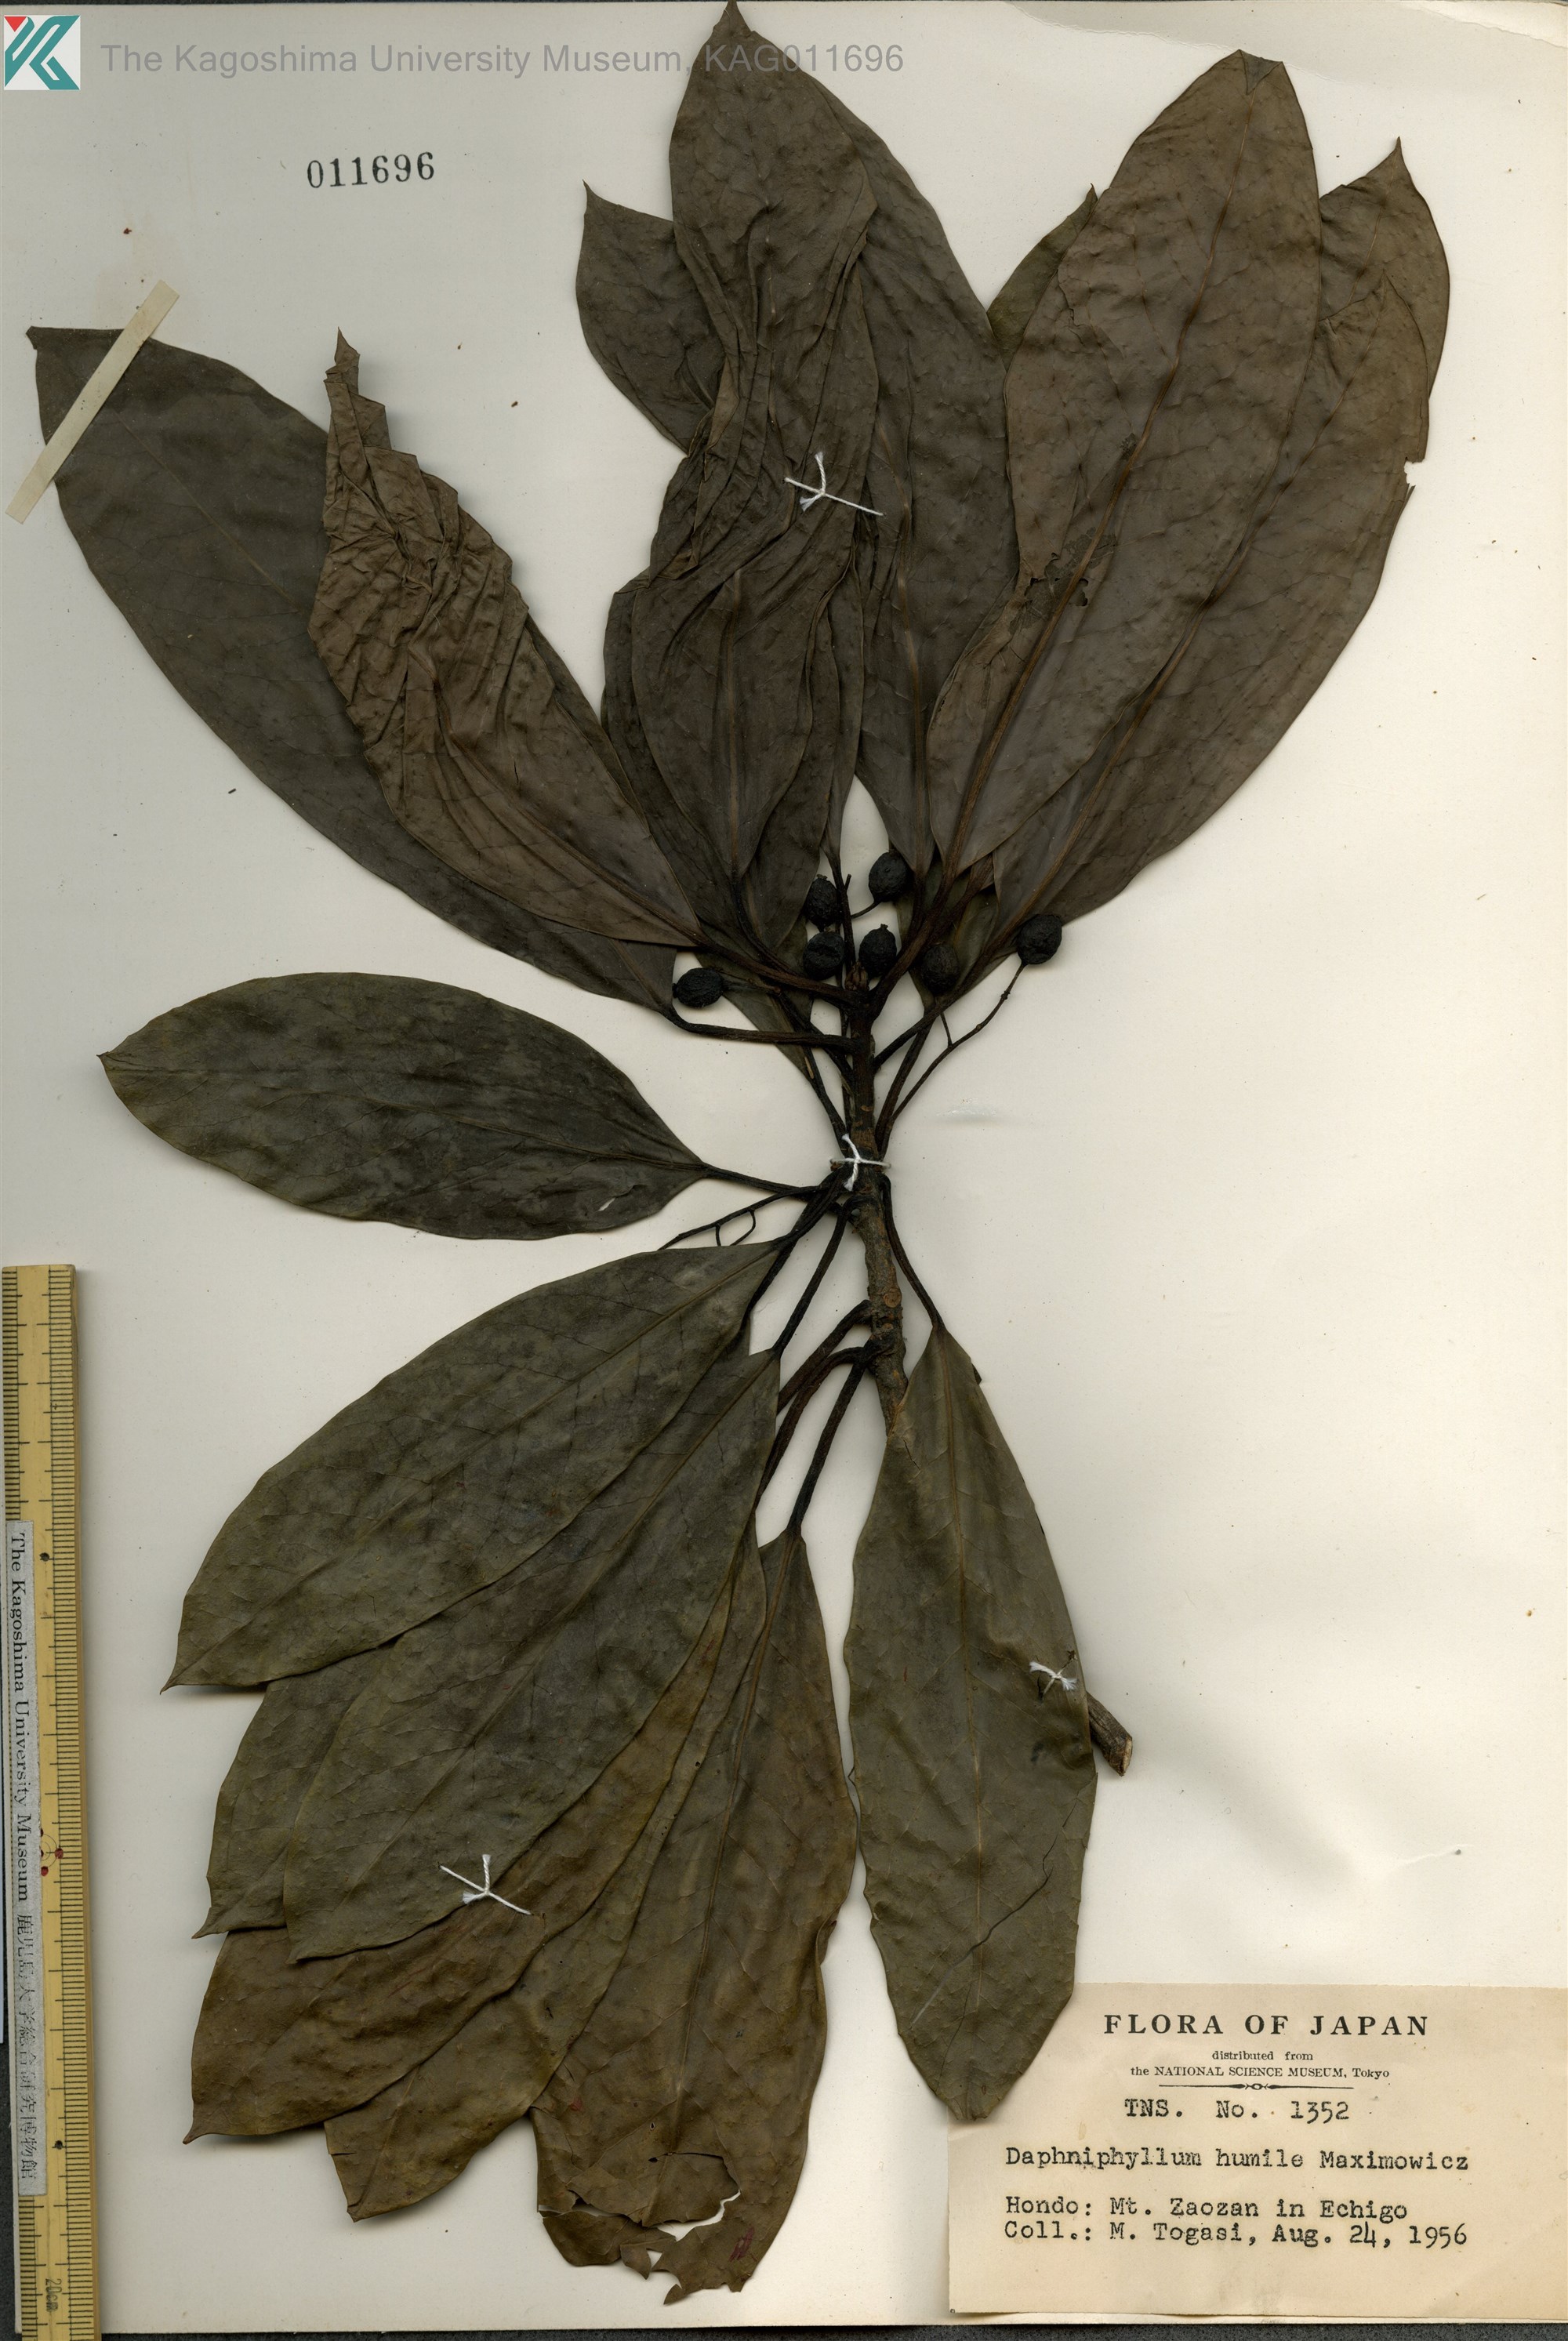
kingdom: Plantae
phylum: Tracheophyta
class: Magnoliopsida
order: Saxifragales
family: Daphniphyllaceae
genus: Daphniphyllum
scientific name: Daphniphyllum macropodum
